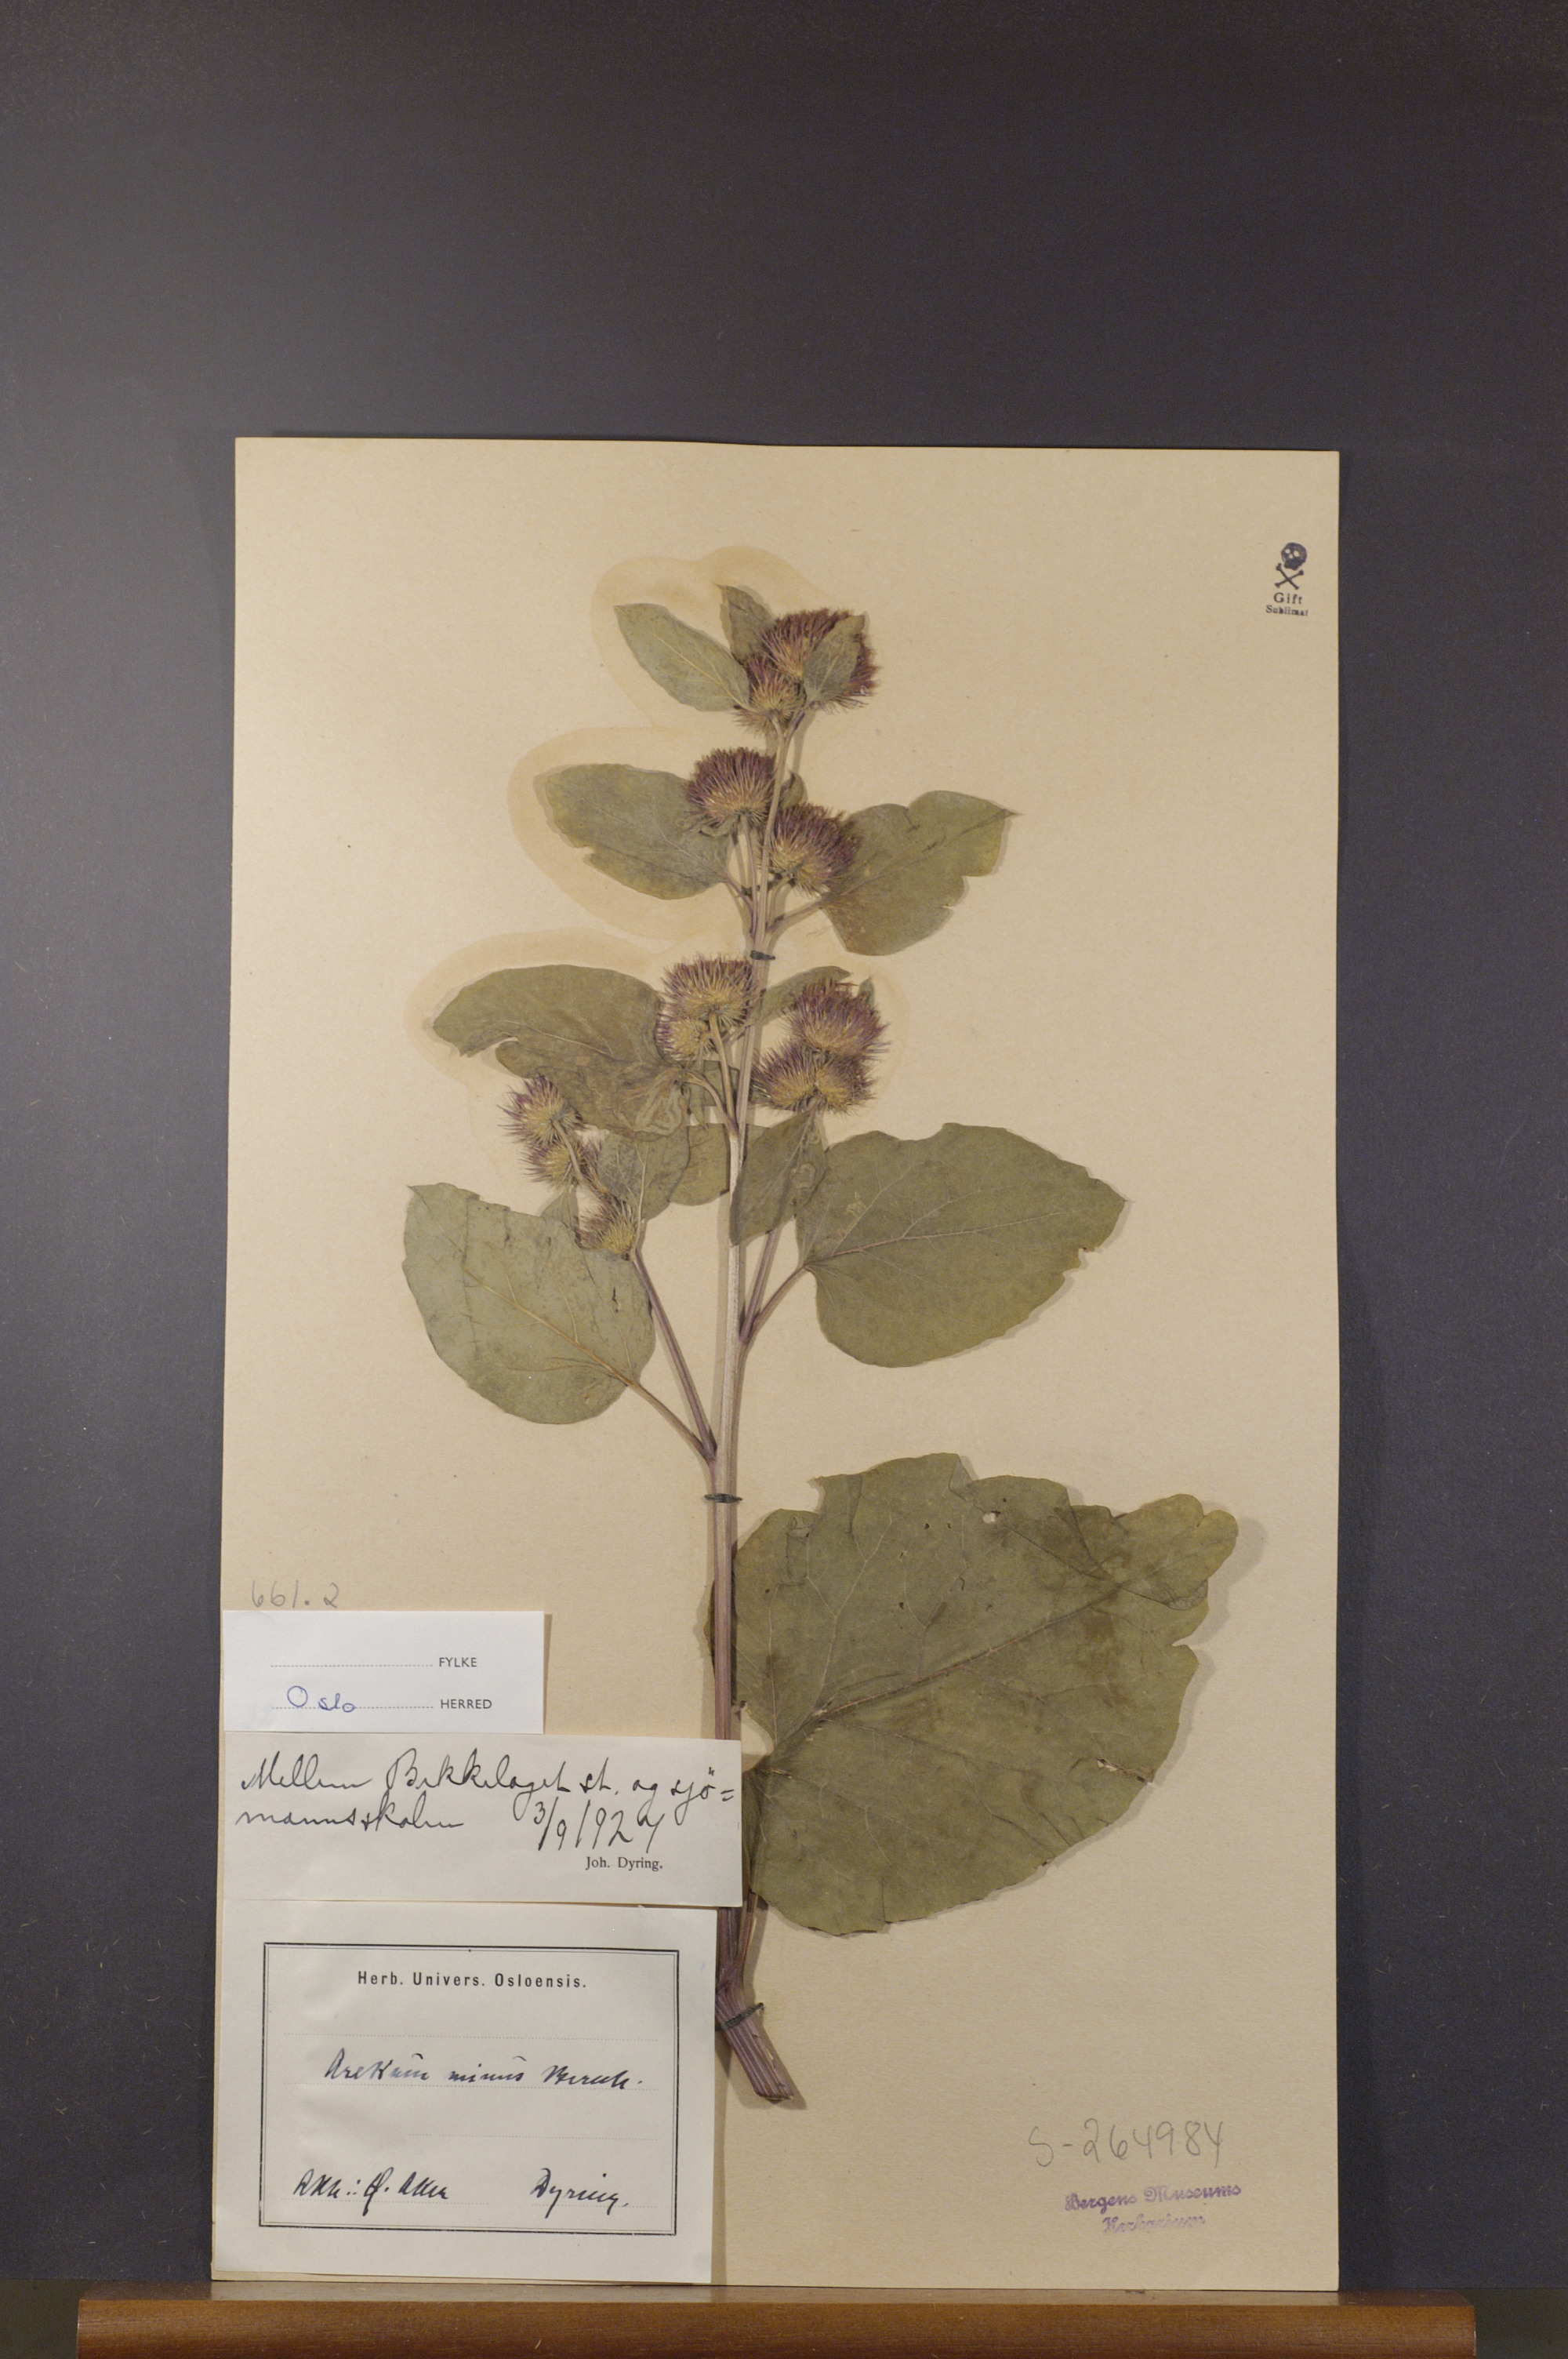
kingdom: Plantae
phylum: Tracheophyta
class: Magnoliopsida
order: Asterales
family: Asteraceae
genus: Arctium
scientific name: Arctium minus
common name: Lesser burdock
